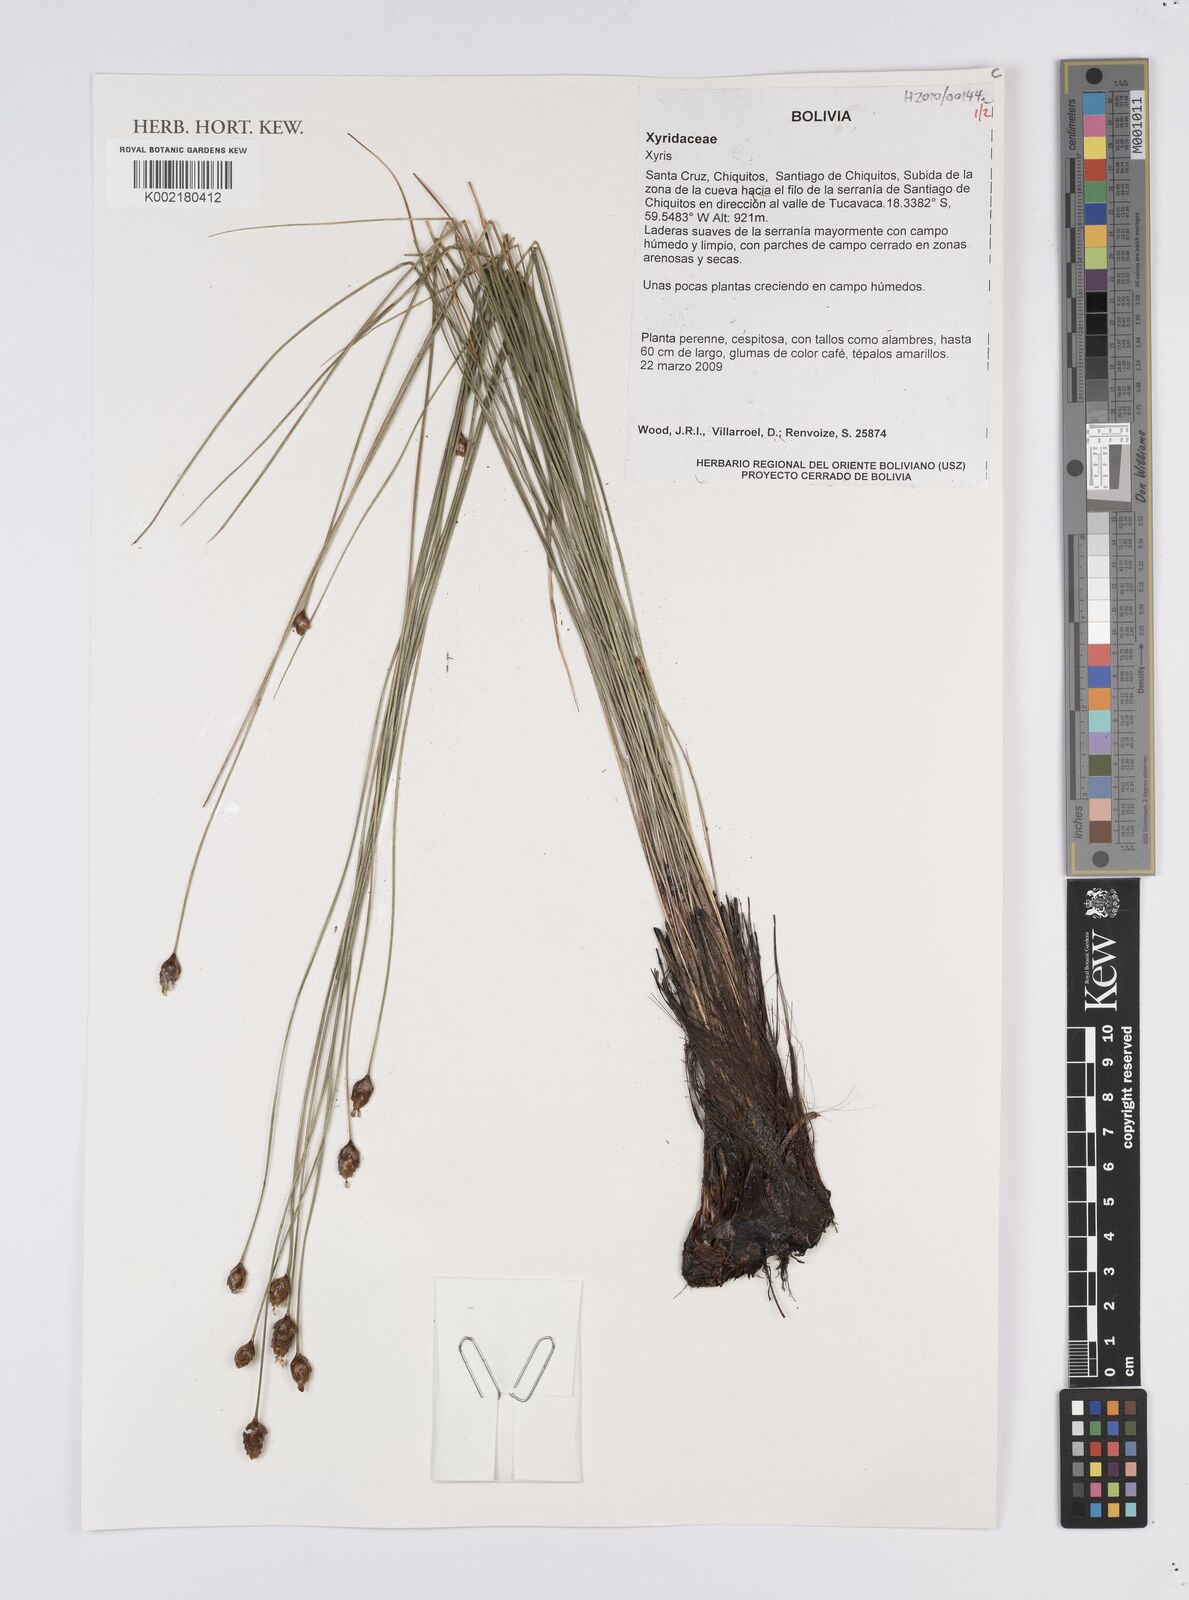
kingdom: Plantae
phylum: Tracheophyta
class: Liliopsida
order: Poales
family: Xyridaceae
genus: Xyris
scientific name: Xyris
